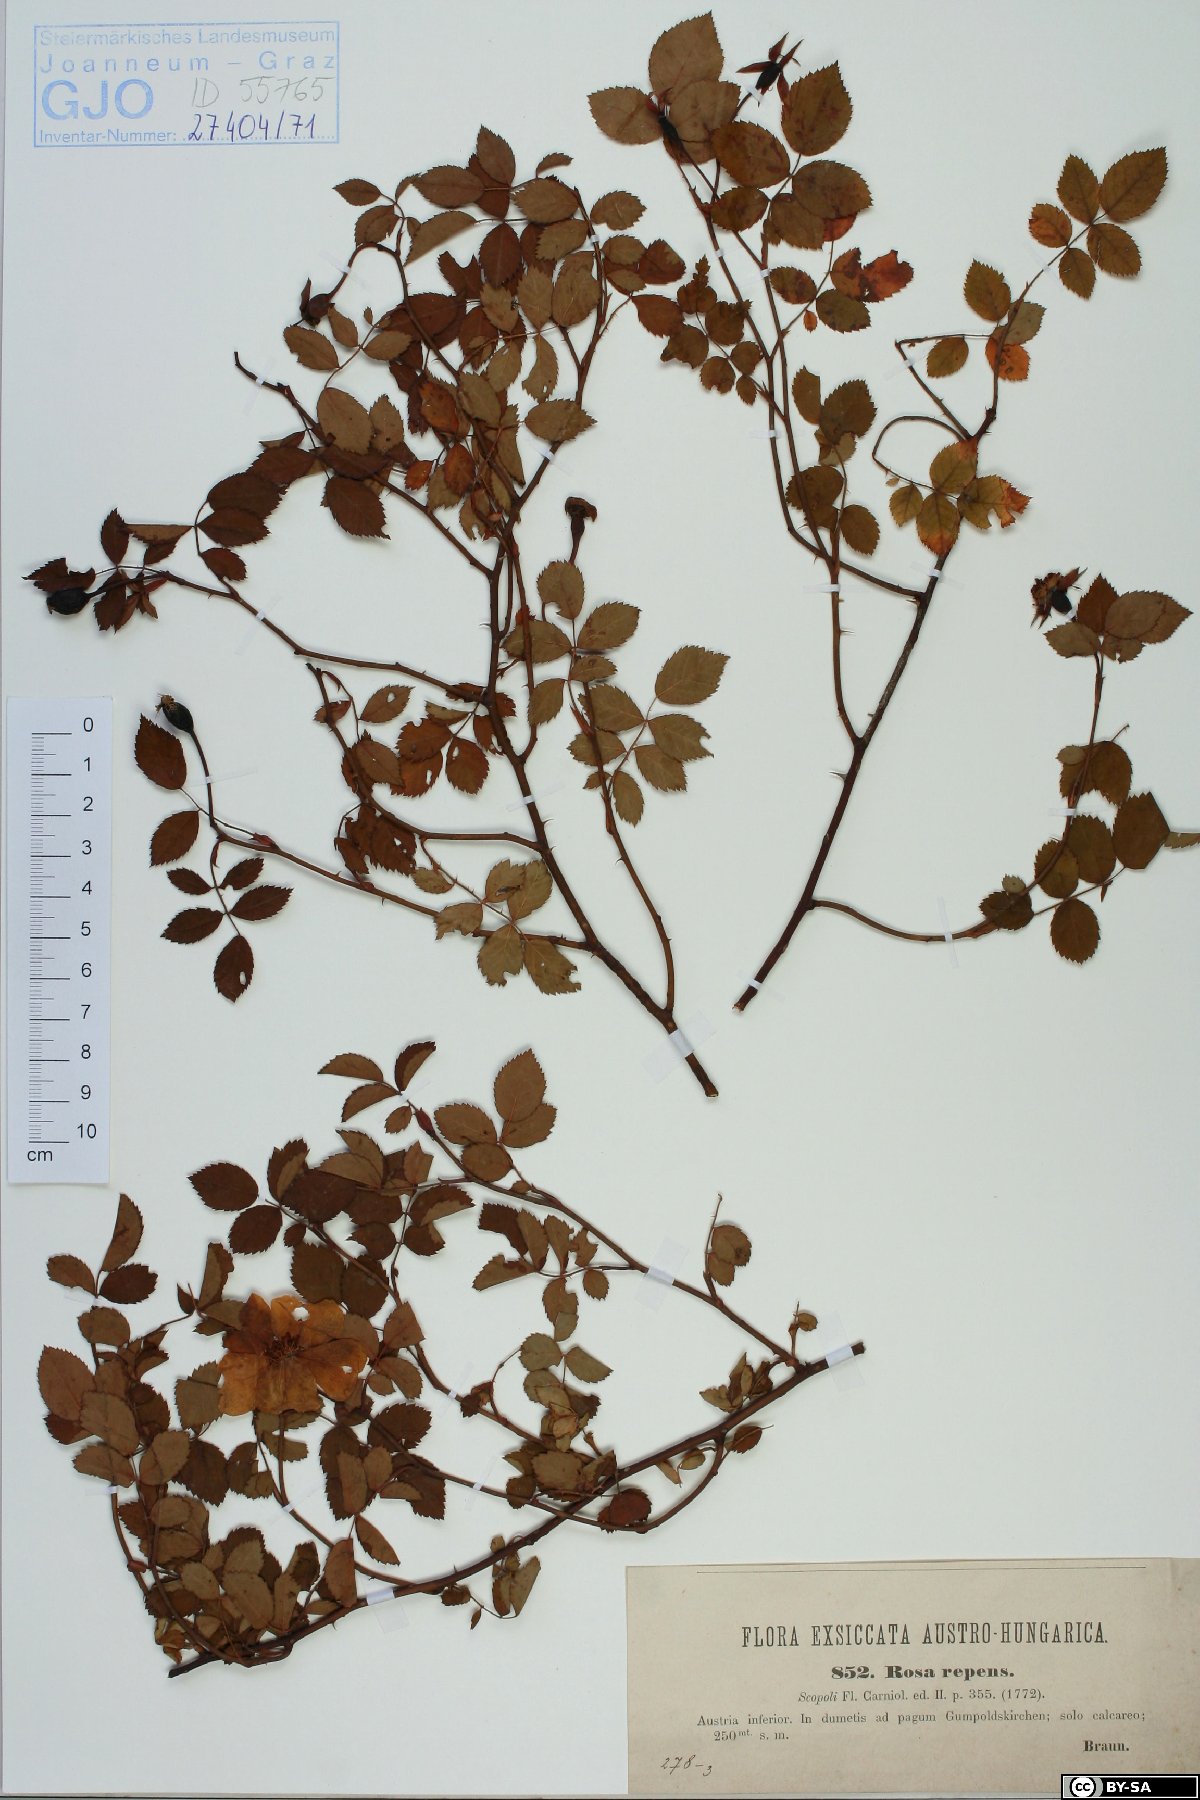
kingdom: Plantae
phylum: Tracheophyta
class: Magnoliopsida
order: Rosales
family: Rosaceae
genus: Rosa
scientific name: Rosa arvensis
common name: Field rose
